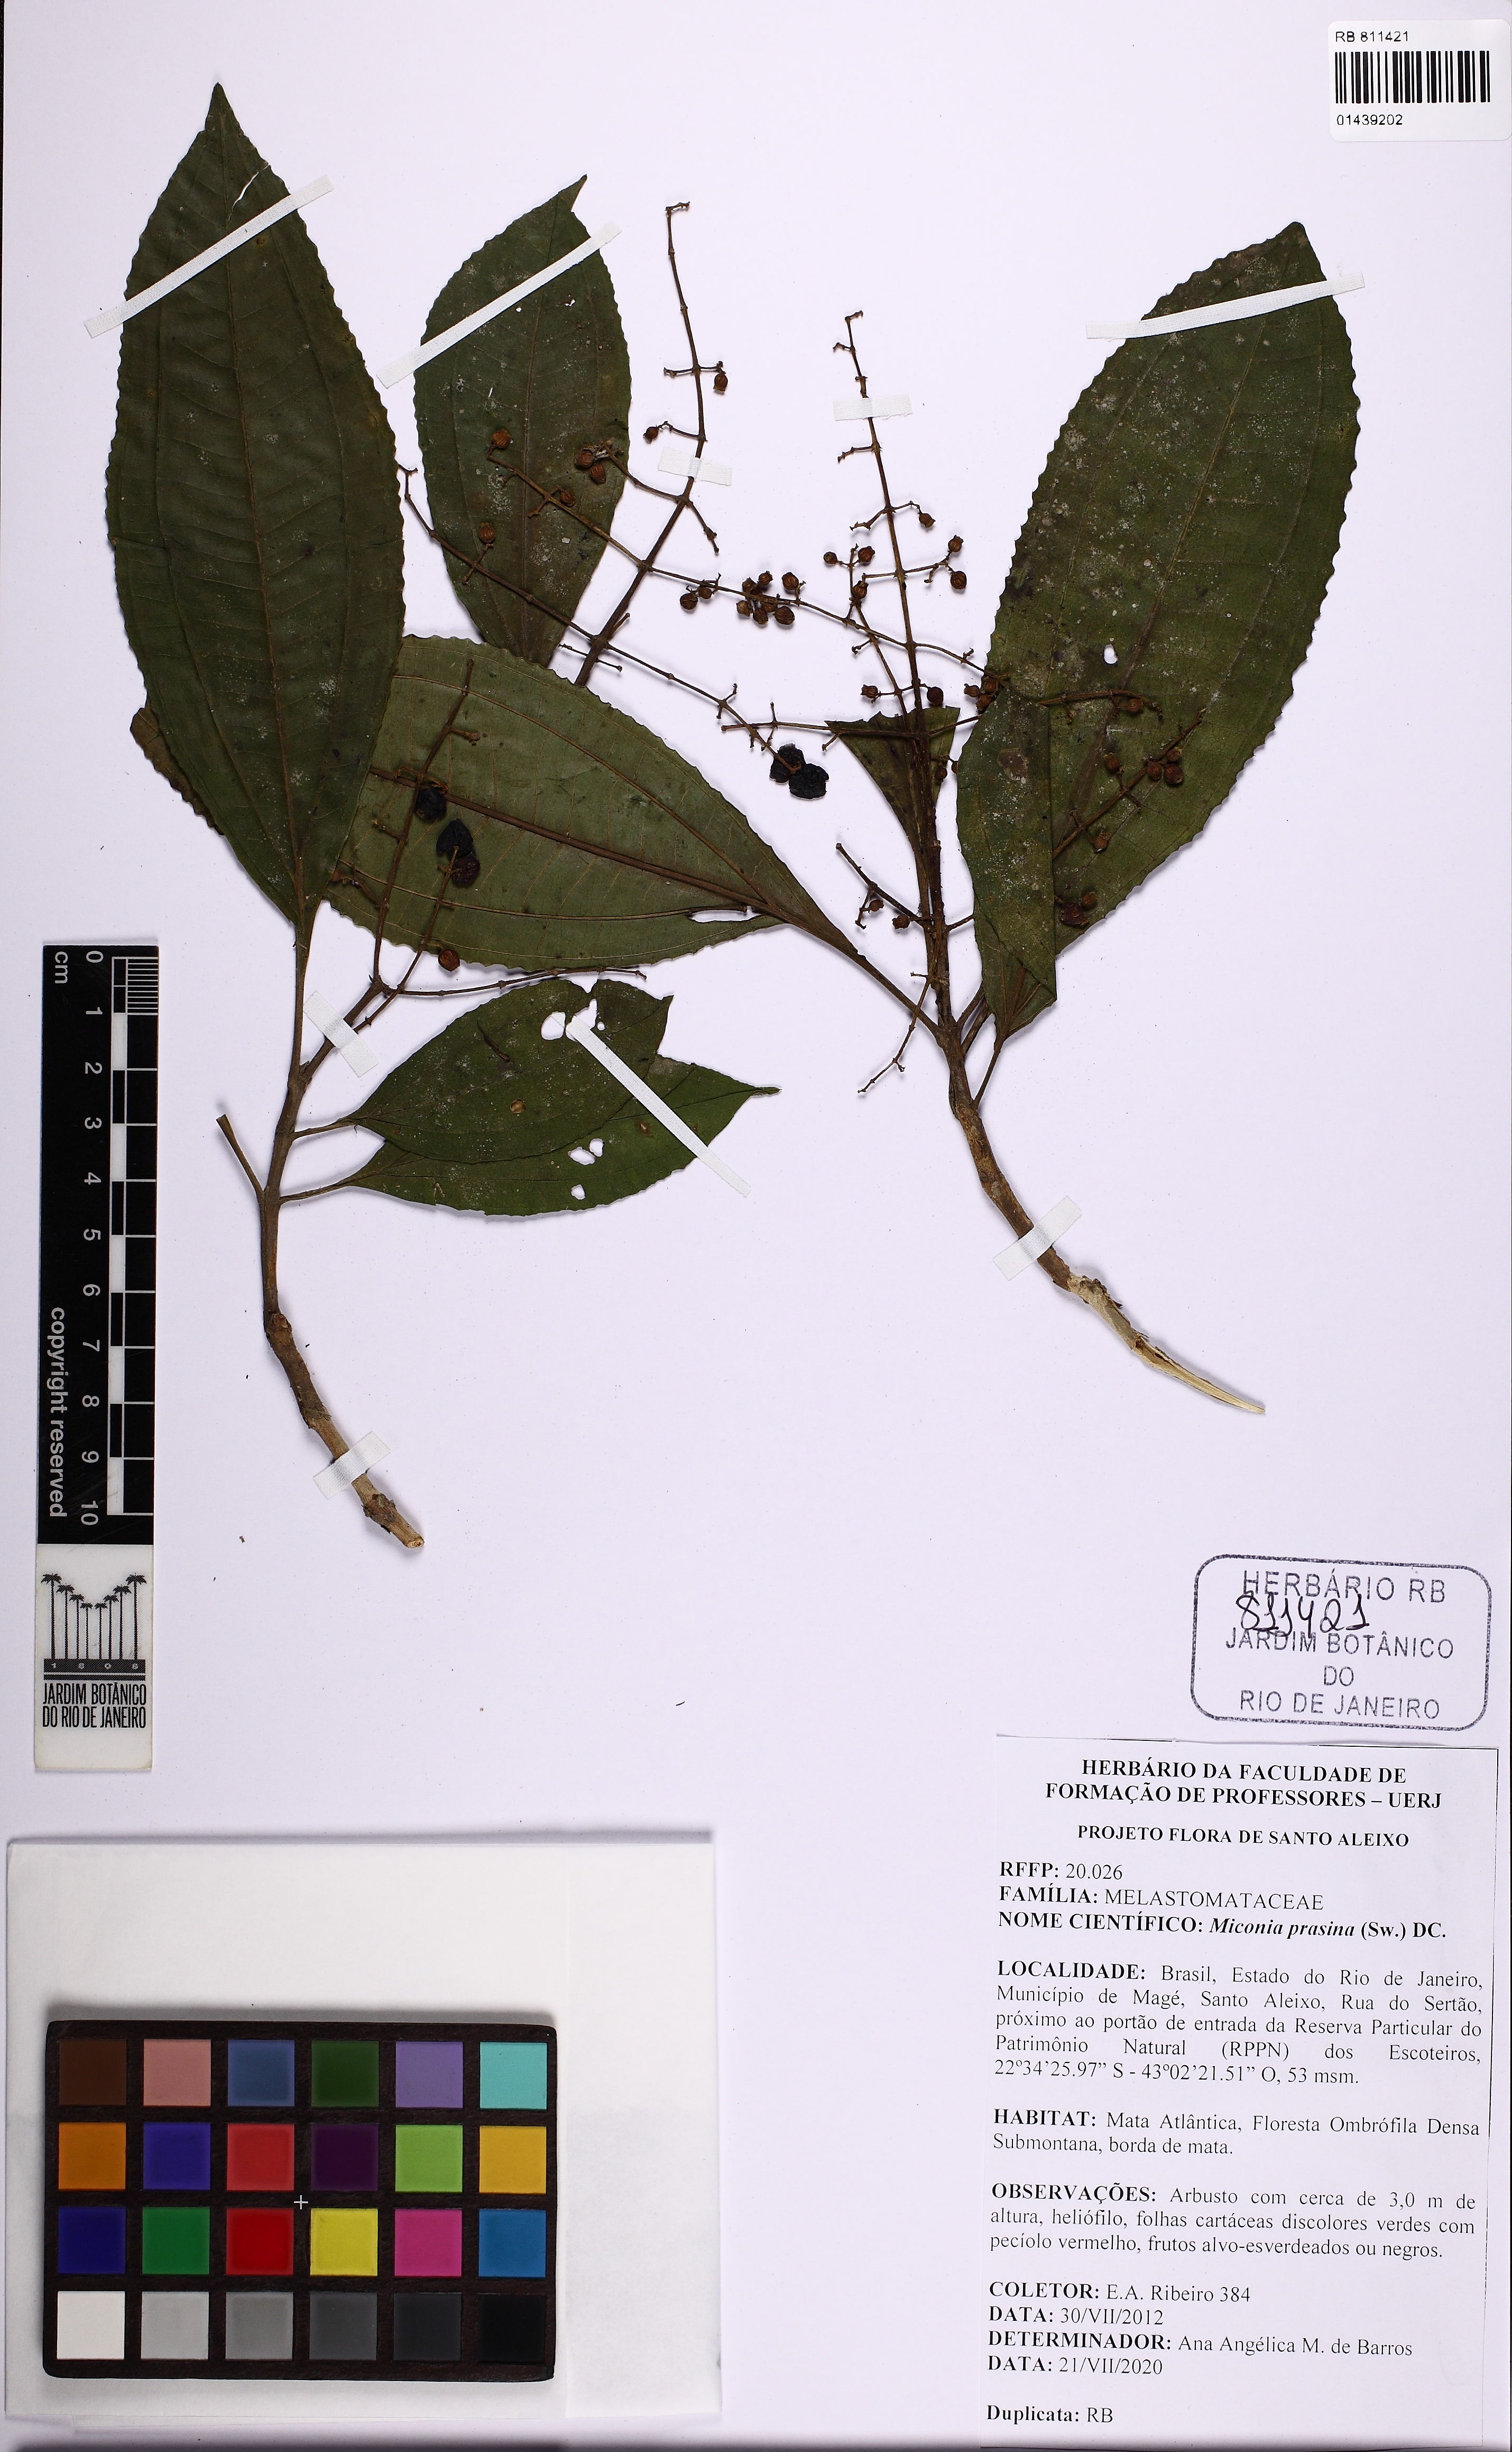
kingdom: Plantae
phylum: Tracheophyta
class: Magnoliopsida
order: Myrtales
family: Melastomataceae
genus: Miconia
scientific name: Miconia prasina
